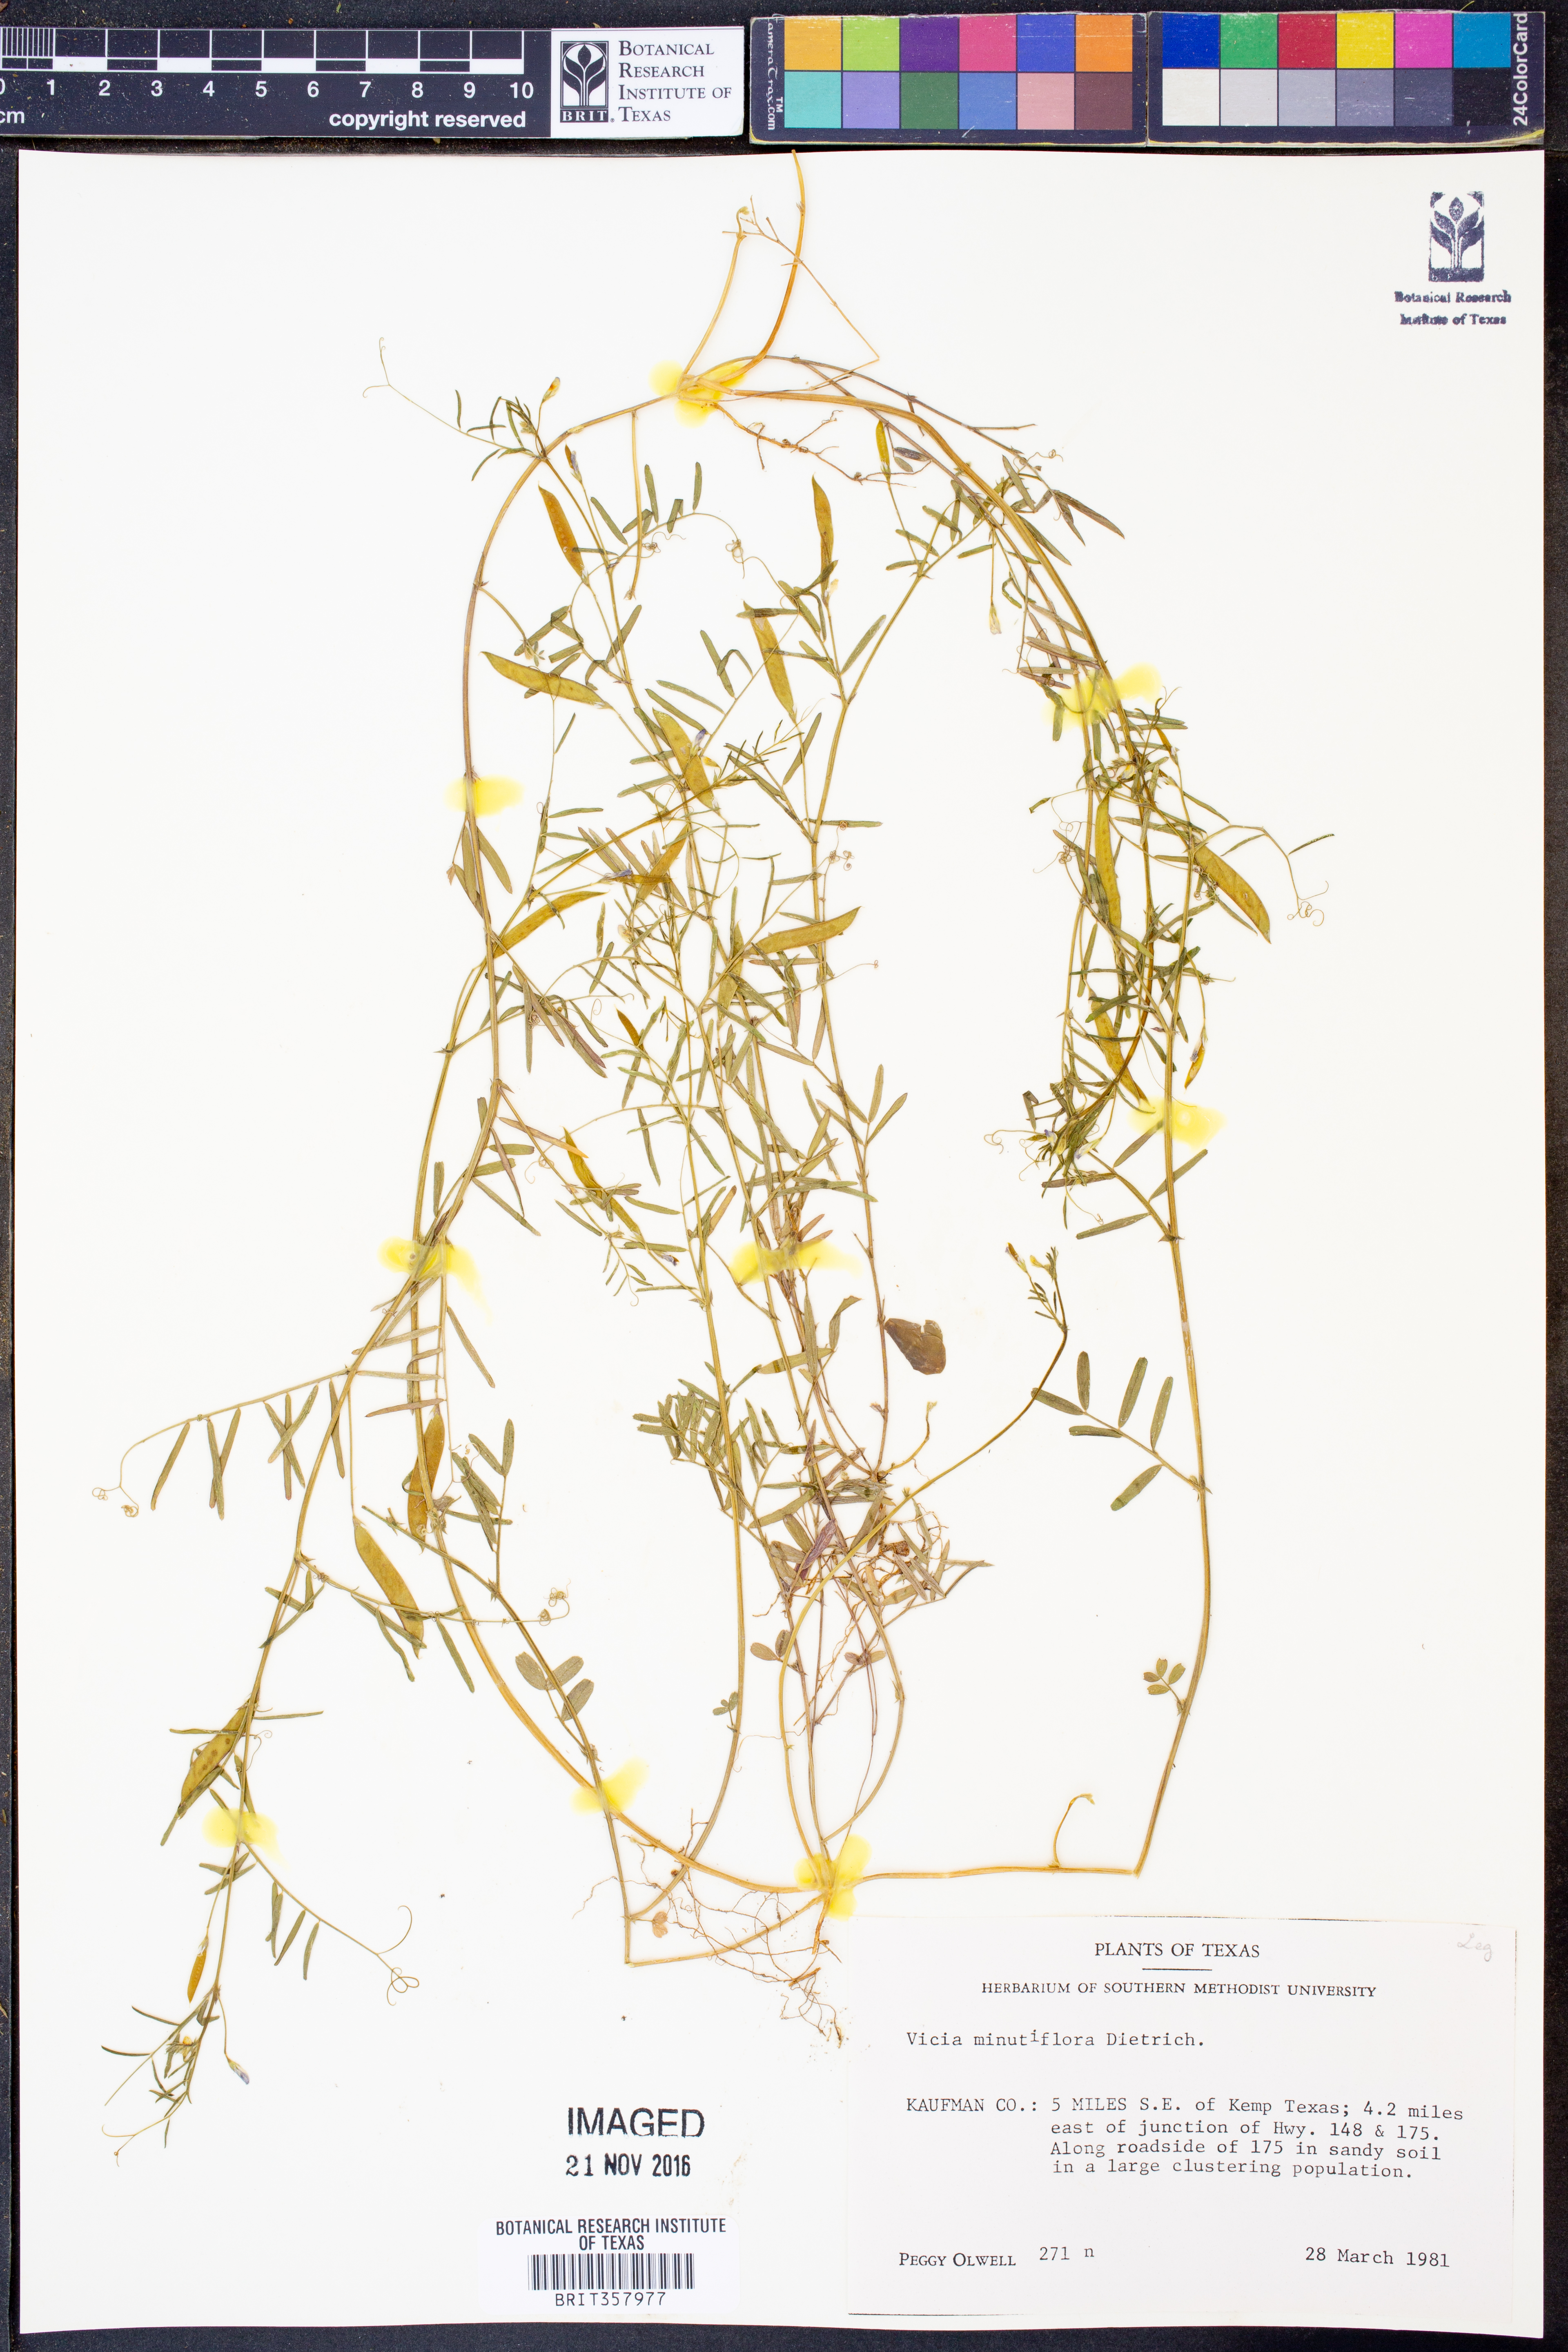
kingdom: Plantae
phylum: Tracheophyta
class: Magnoliopsida
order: Fabales
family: Fabaceae
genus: Vicia
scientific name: Vicia minutiflora
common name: Pygmy-flower vetch
